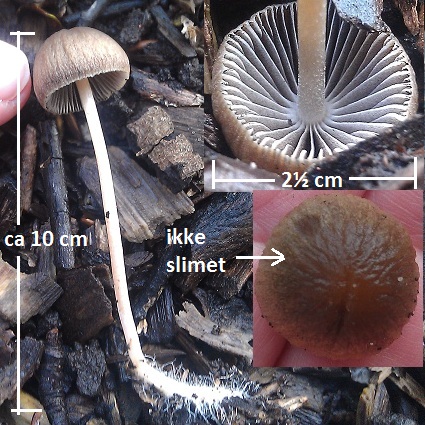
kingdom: Fungi
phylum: Basidiomycota
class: Agaricomycetes
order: Agaricales
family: Psathyrellaceae
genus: Psathyrella
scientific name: Psathyrella longicauda
